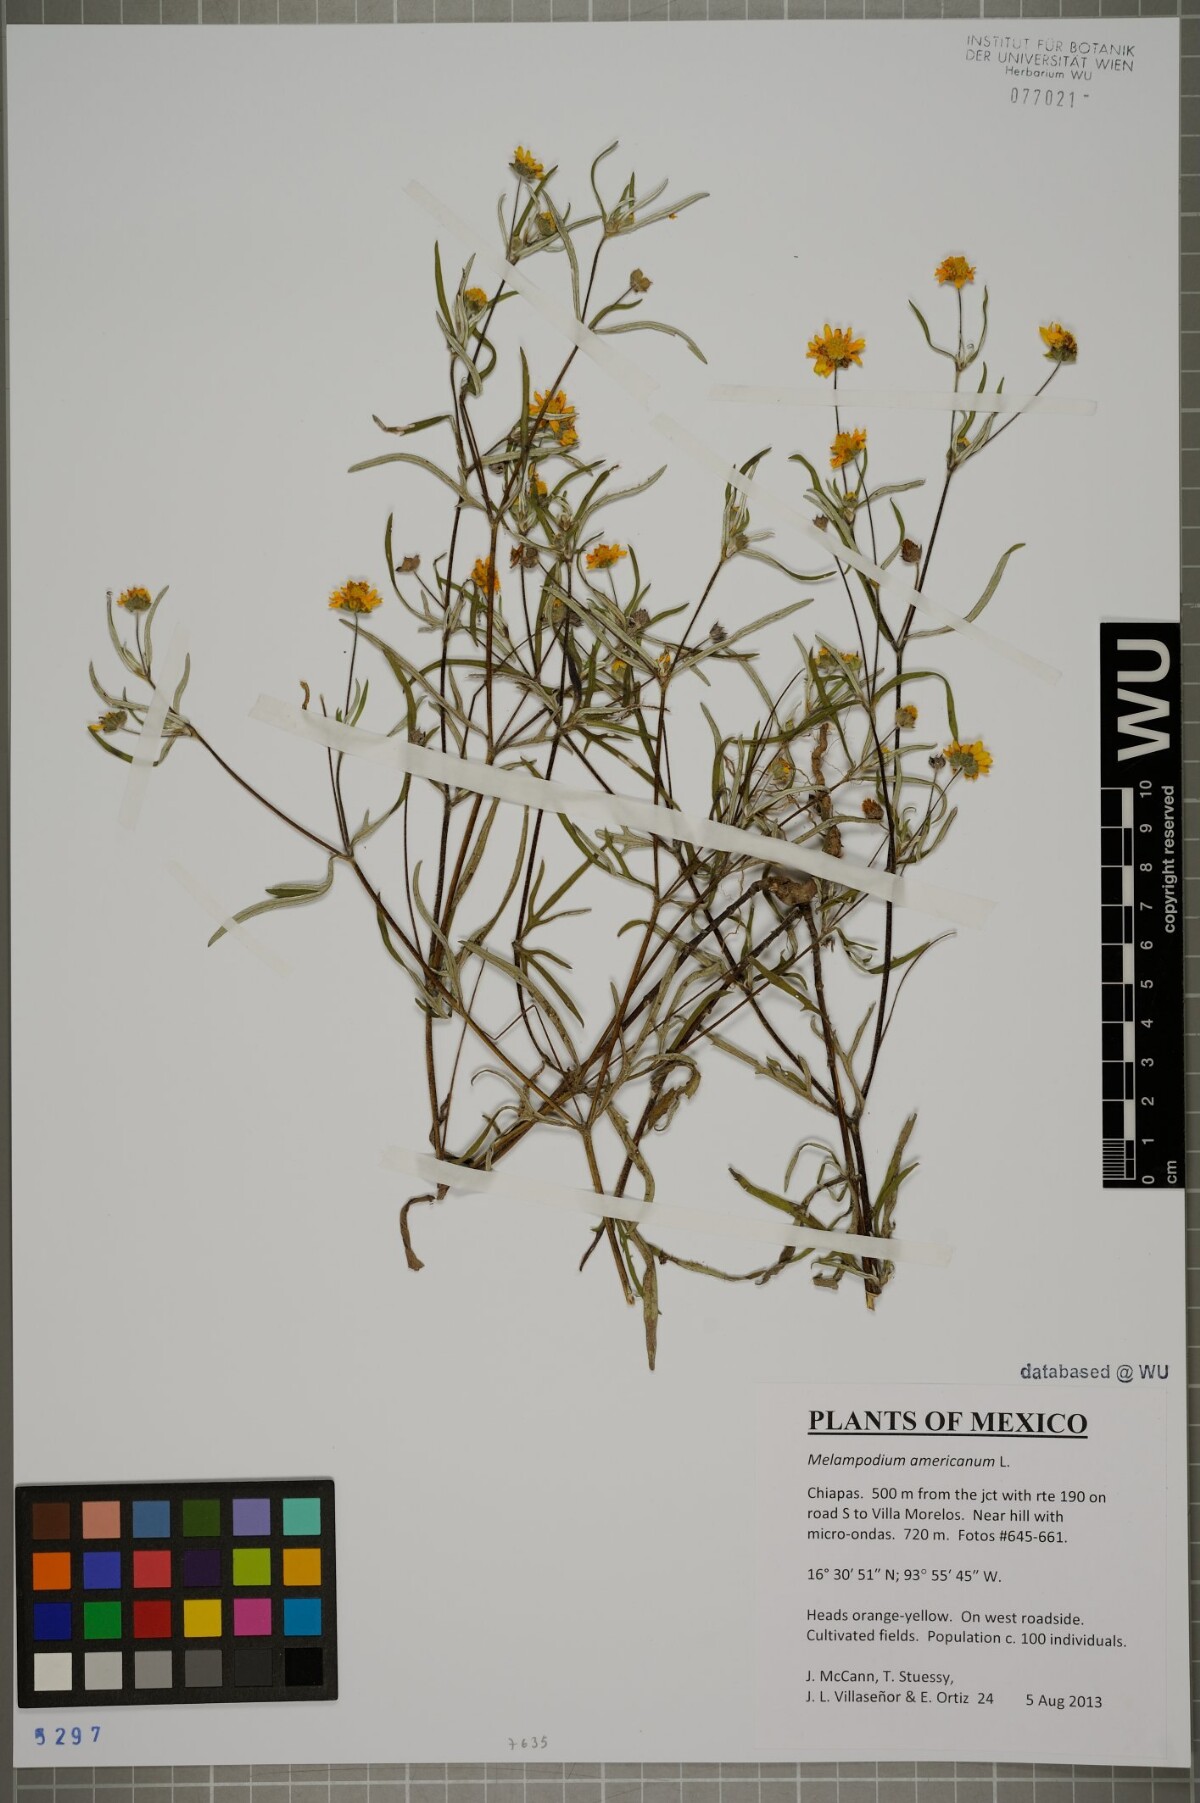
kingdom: Plantae
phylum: Tracheophyta
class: Magnoliopsida
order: Asterales
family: Asteraceae
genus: Melampodium
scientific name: Melampodium americanum
